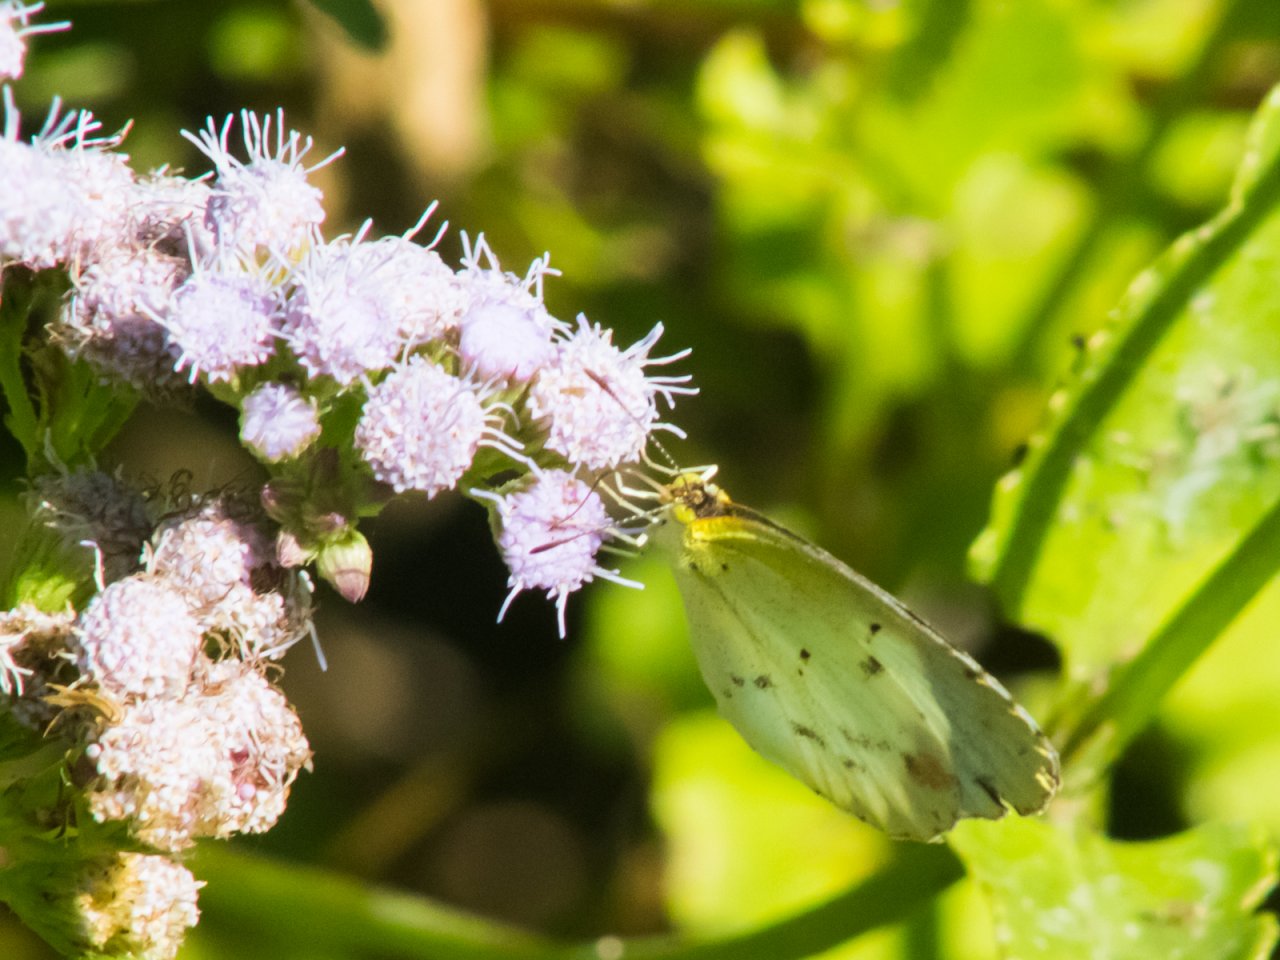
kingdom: Animalia
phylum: Arthropoda
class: Insecta
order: Lepidoptera
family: Pieridae
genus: Pyrisitia
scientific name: Pyrisitia lisa
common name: Little Yellow
